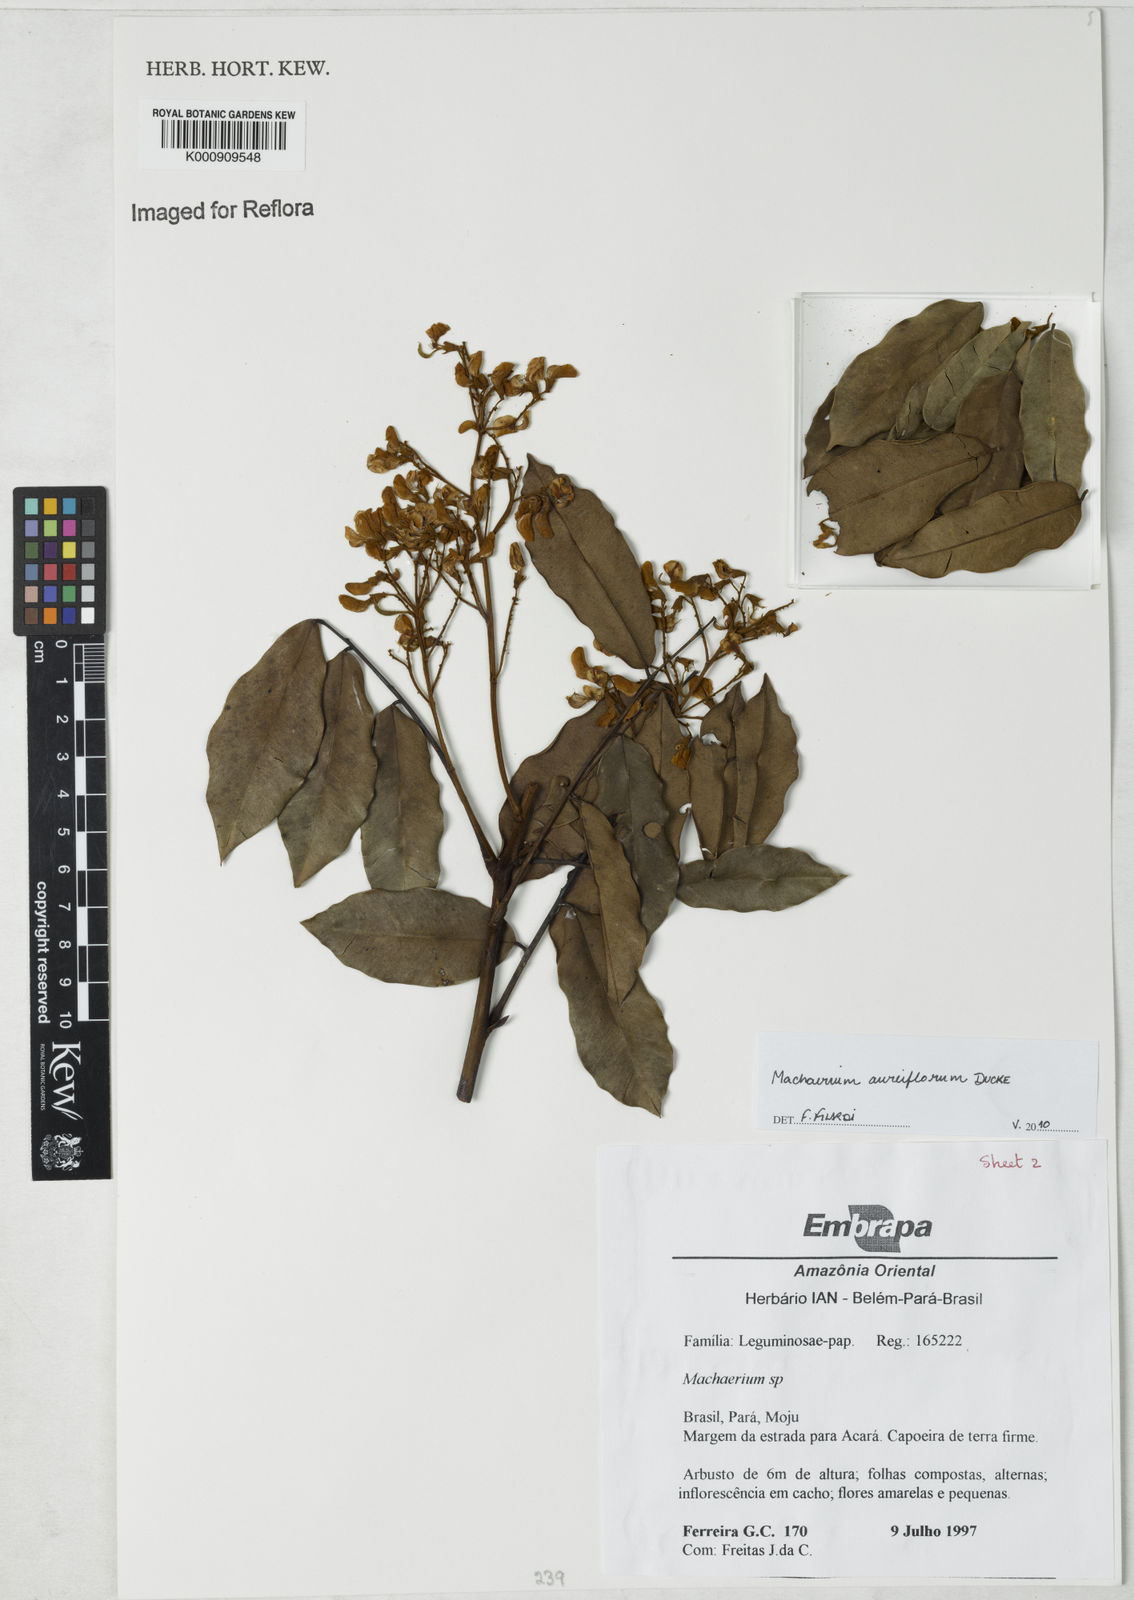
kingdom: Plantae
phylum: Tracheophyta
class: Magnoliopsida
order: Fabales
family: Fabaceae
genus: Machaerium
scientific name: Machaerium aureiflorum
